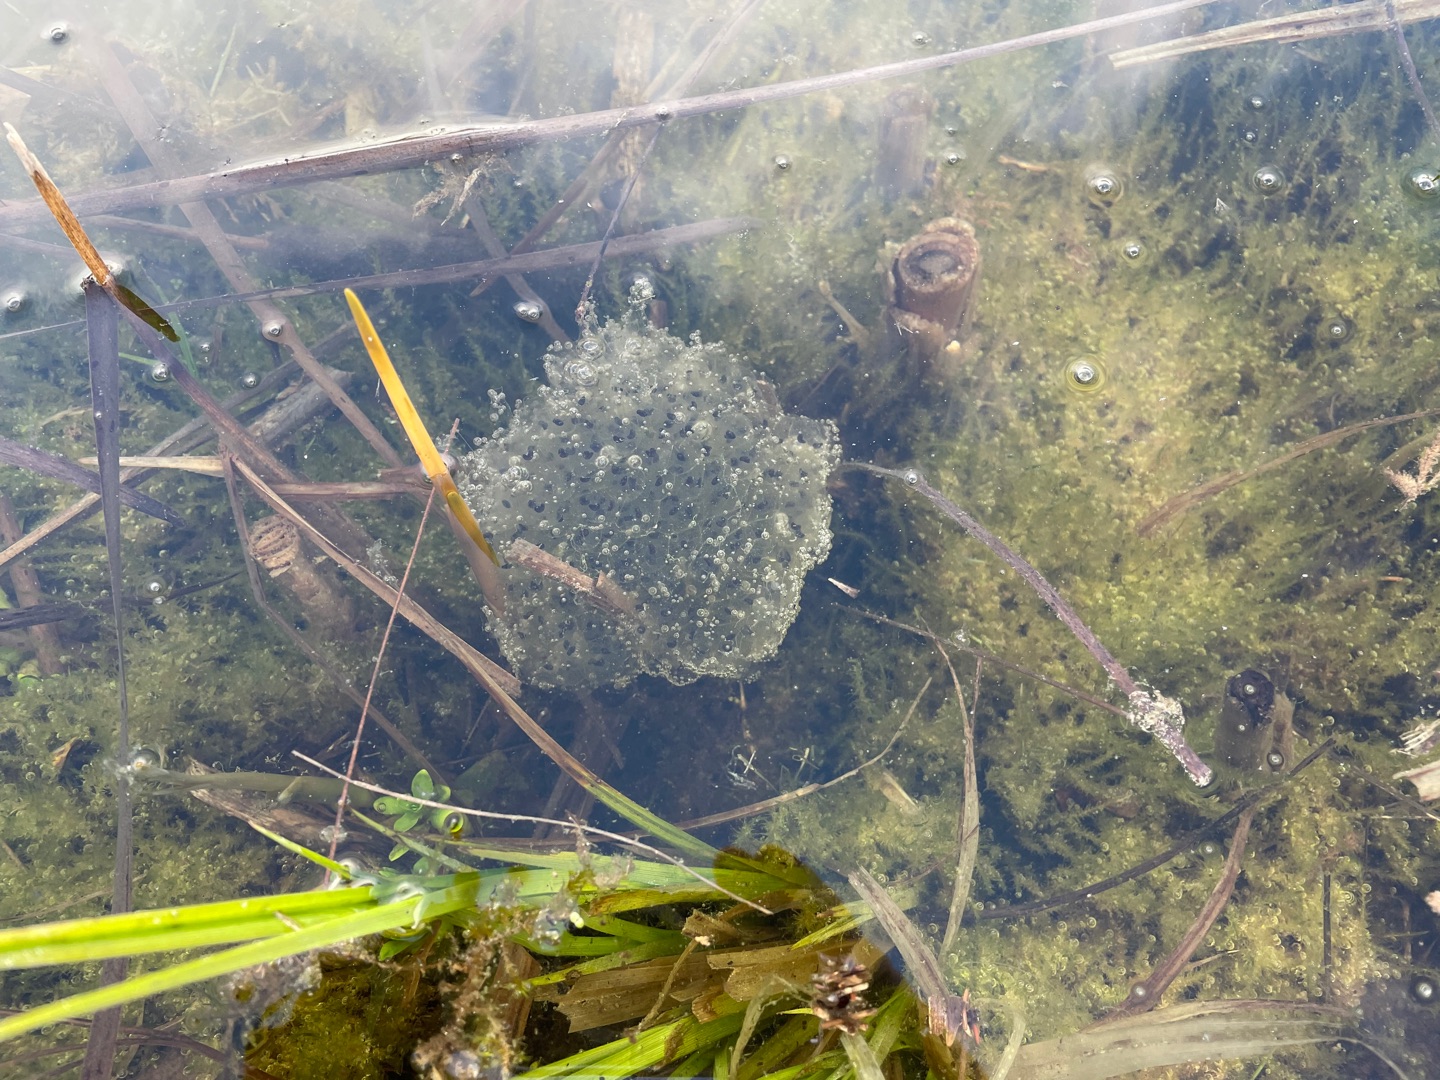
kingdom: Animalia
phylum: Chordata
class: Amphibia
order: Anura
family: Ranidae
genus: Rana
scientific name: Rana dalmatina
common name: Springfrø
